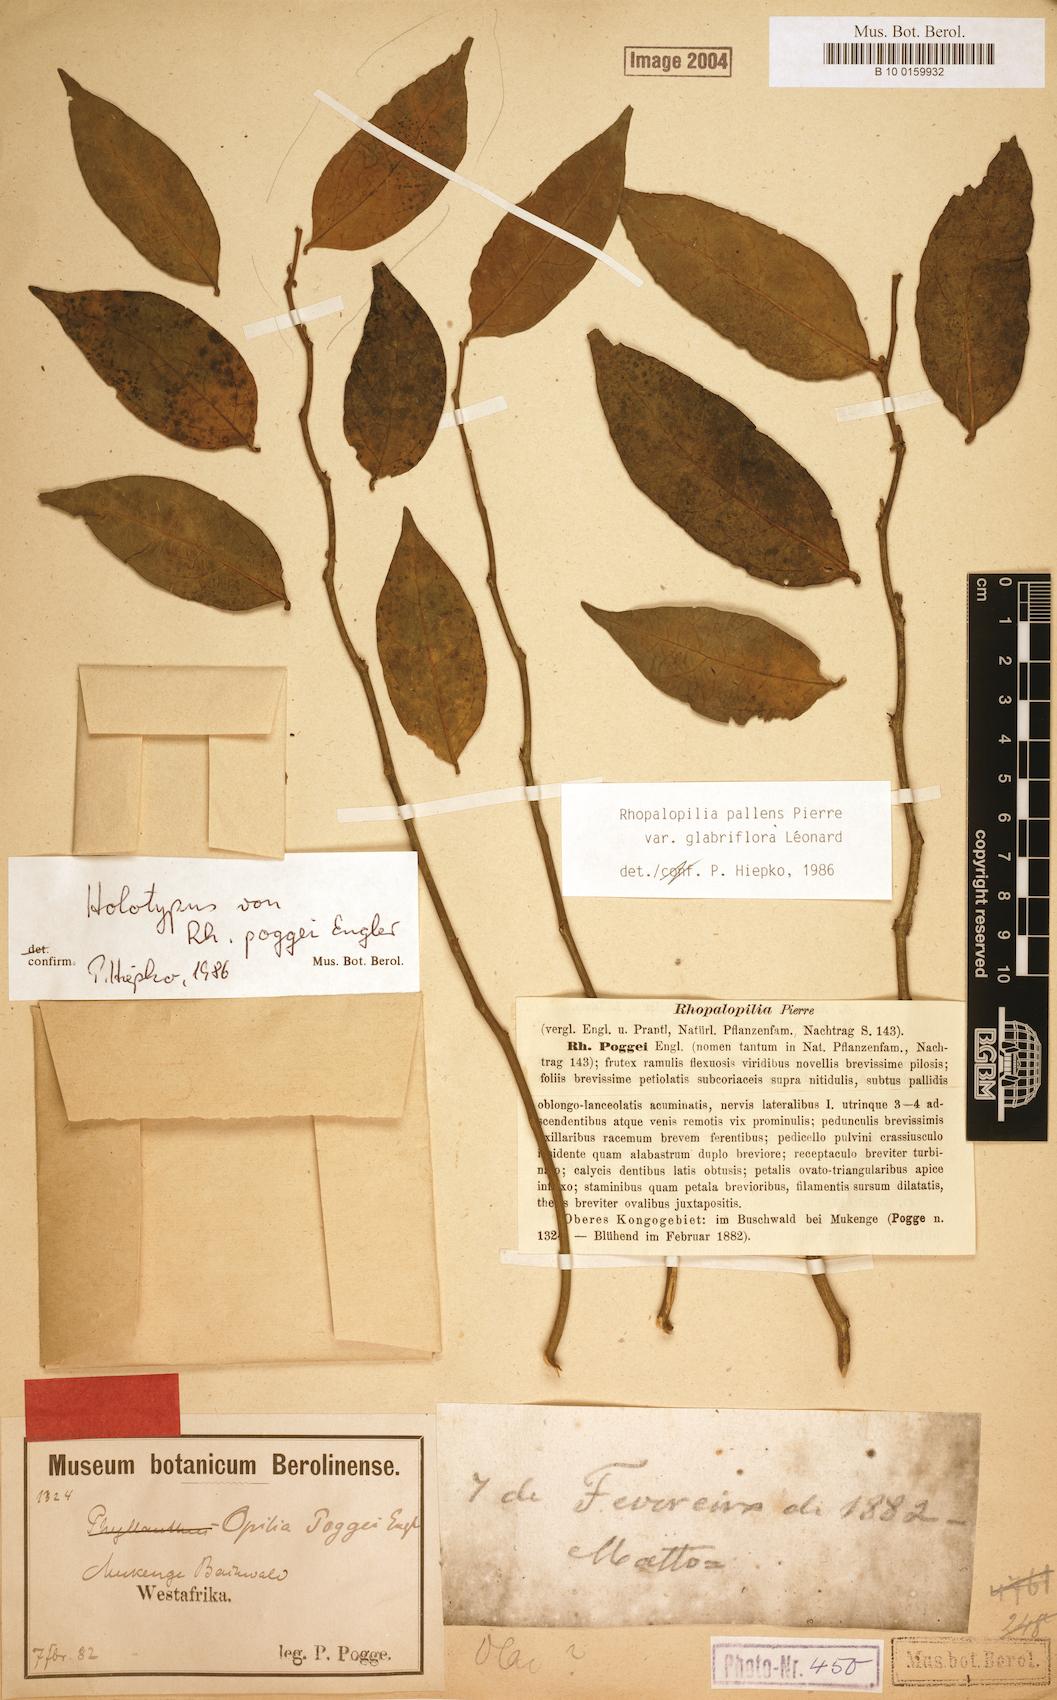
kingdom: Plantae
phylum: Tracheophyta
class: Magnoliopsida
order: Santalales
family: Opiliaceae
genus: Rhopalopilia
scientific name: Rhopalopilia pallens
